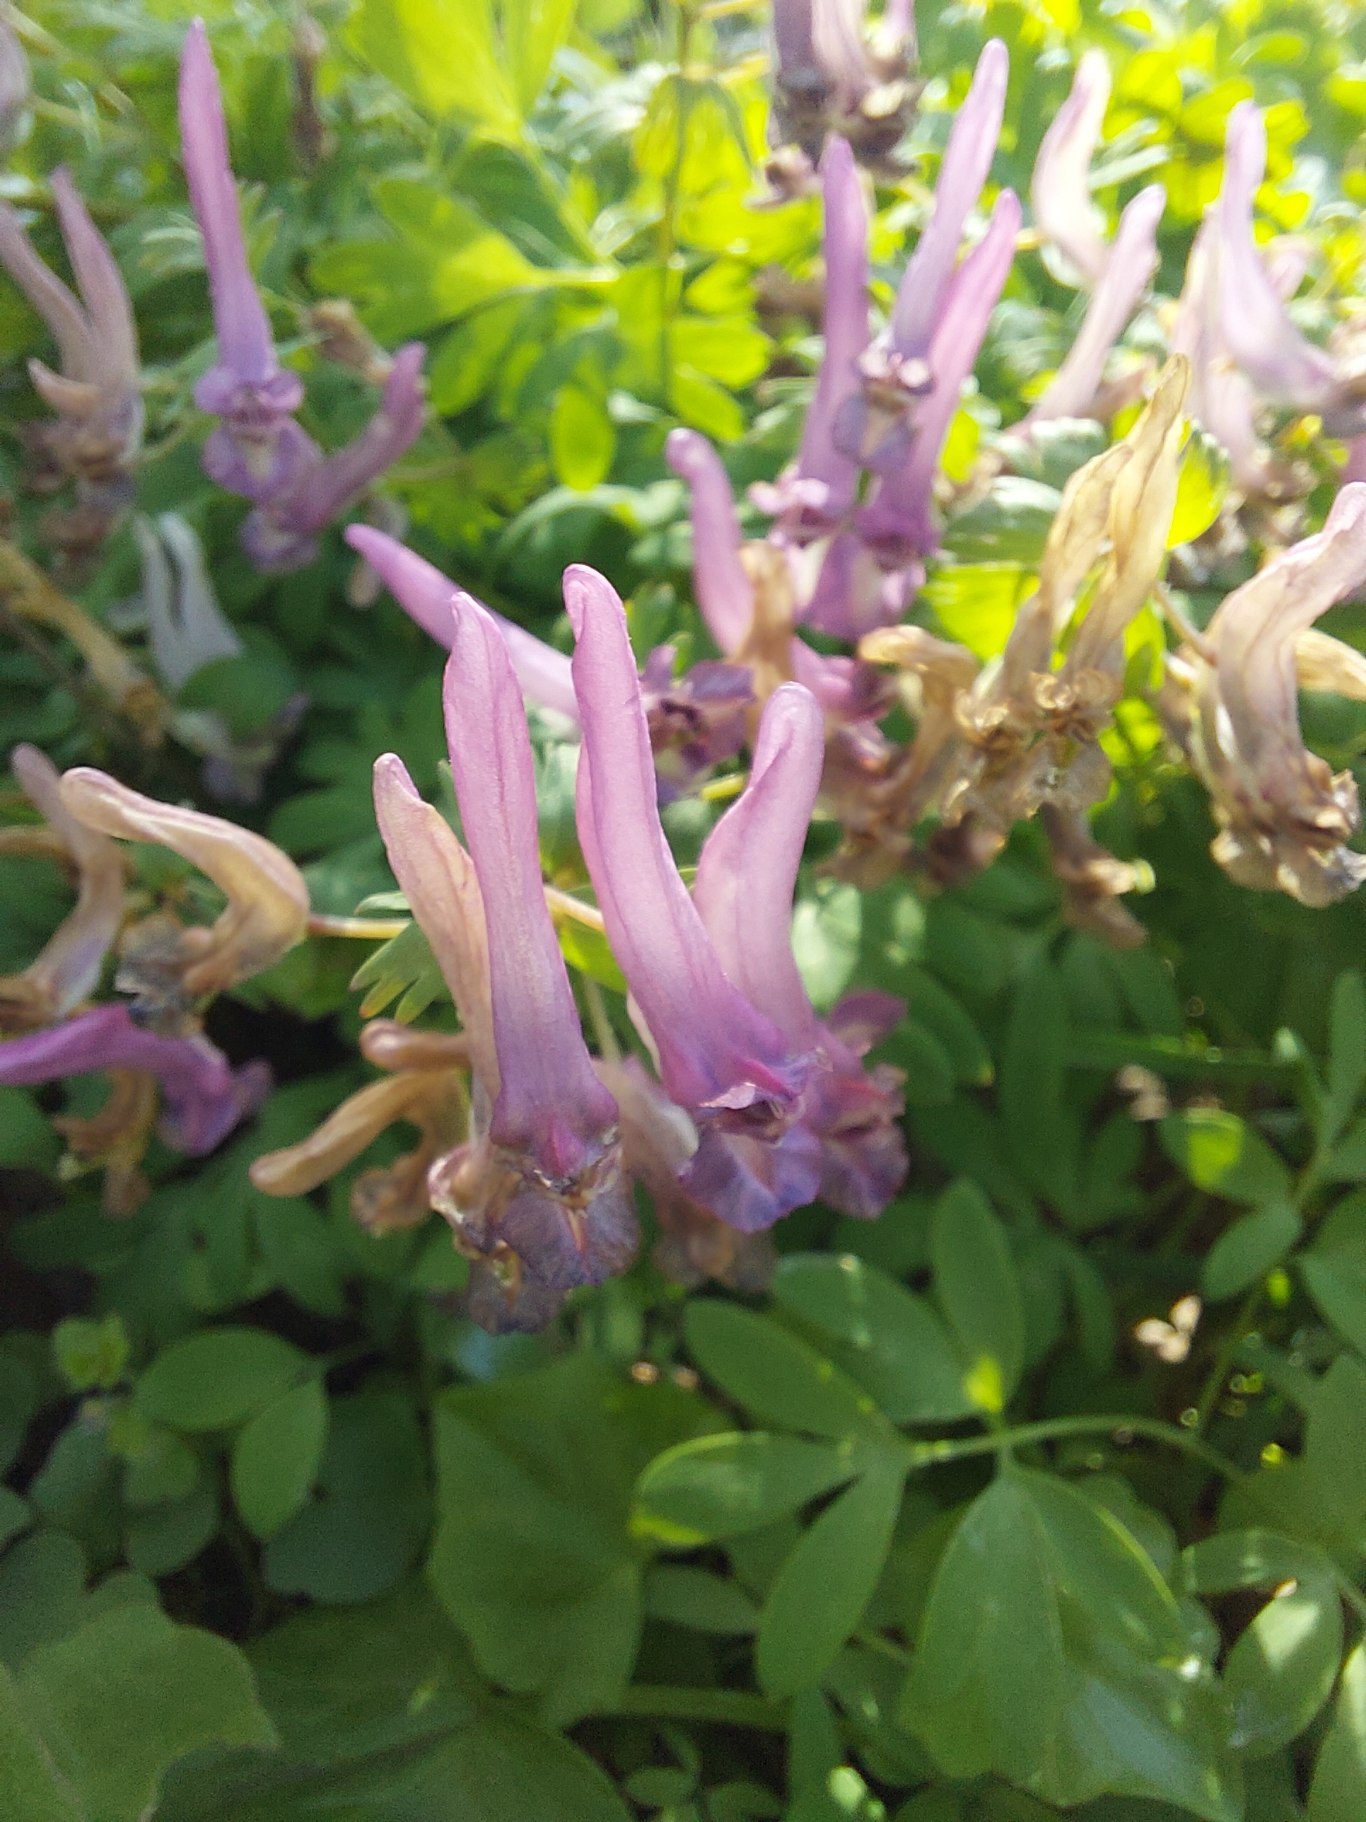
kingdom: Plantae
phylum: Tracheophyta
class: Magnoliopsida
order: Ranunculales
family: Papaveraceae
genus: Corydalis
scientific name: Corydalis solida
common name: Langstilket lærkespore
